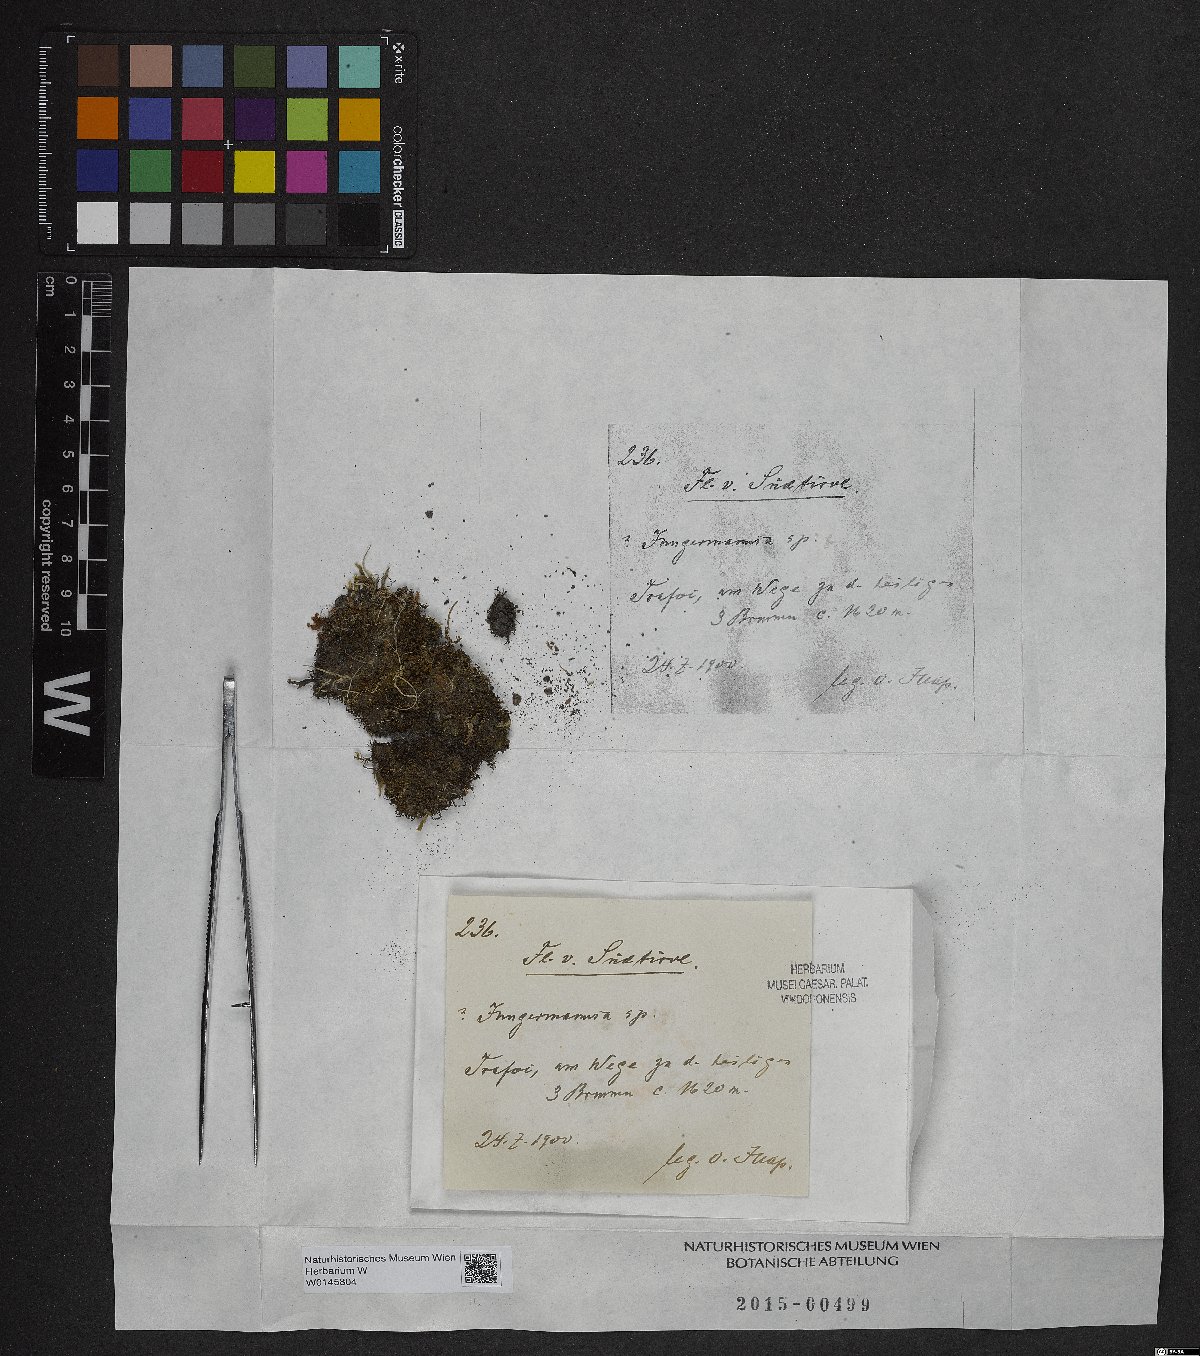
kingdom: Plantae
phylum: Marchantiophyta
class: Jungermanniopsida
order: Jungermanniales
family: Jungermanniaceae
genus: Jungermannia
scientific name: Jungermannia
